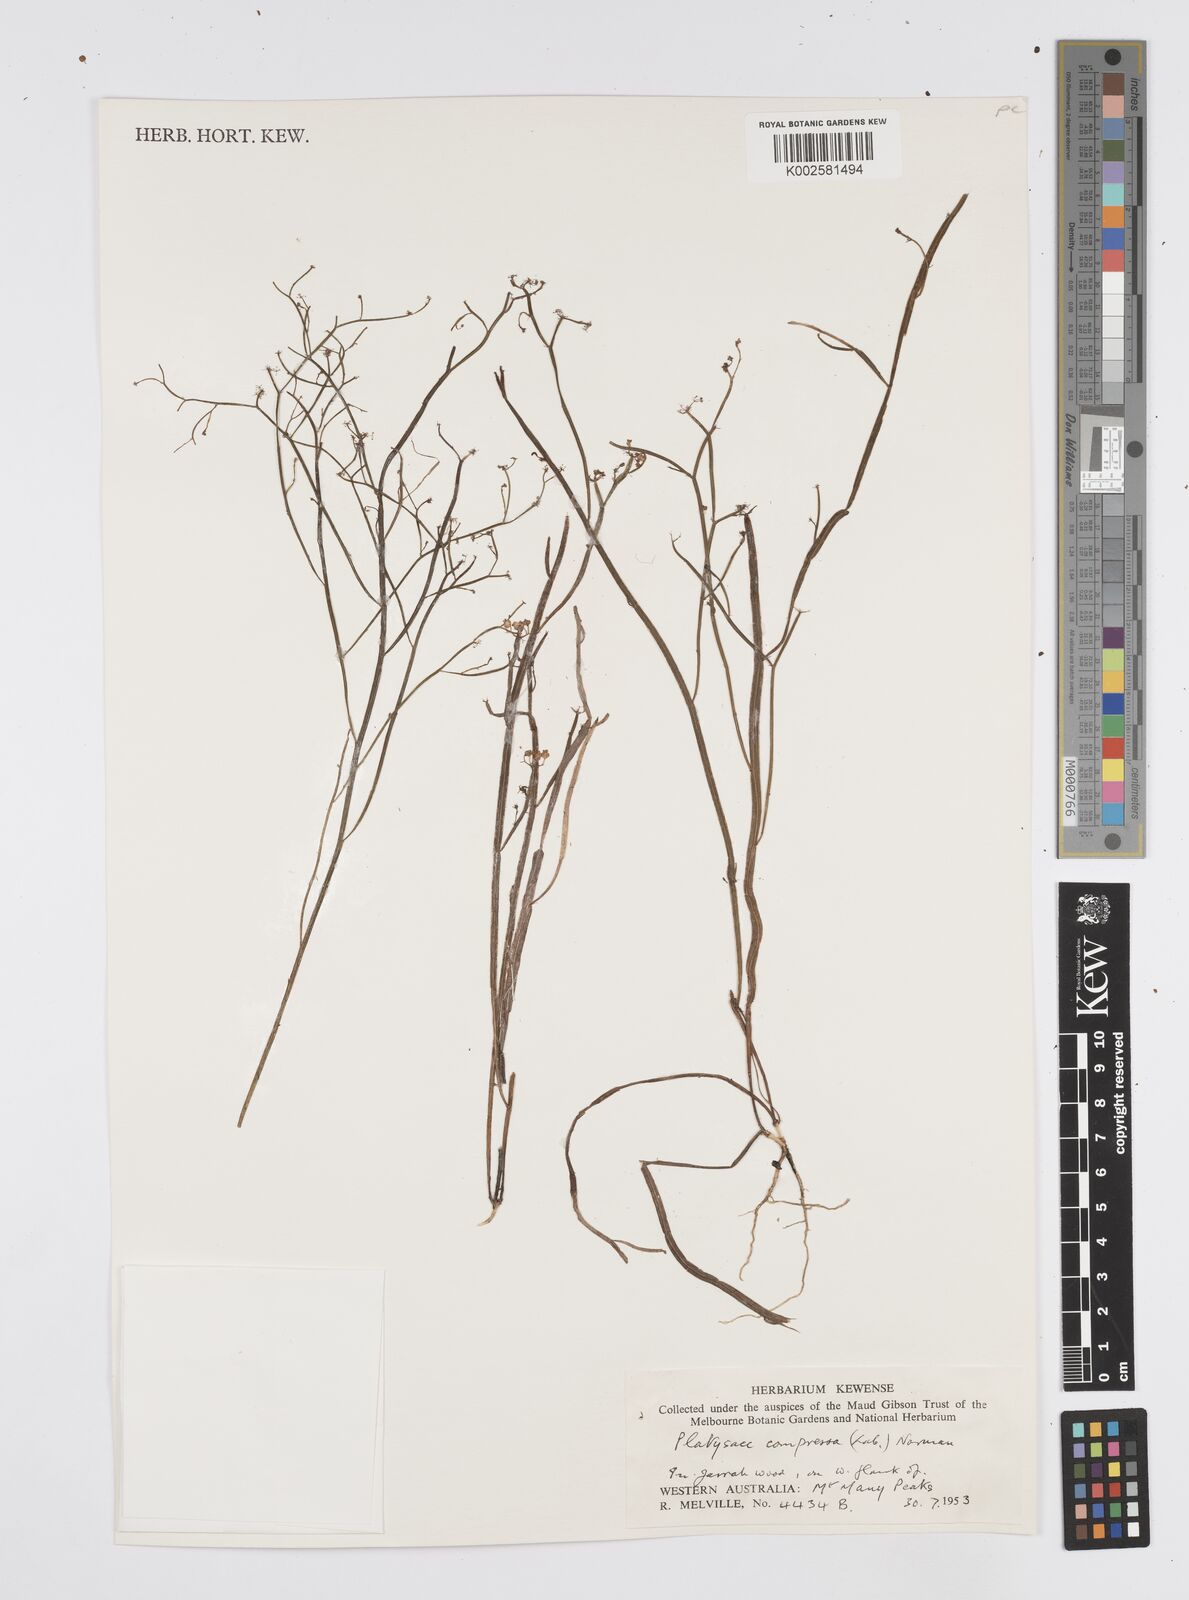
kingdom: Plantae
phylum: Tracheophyta
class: Magnoliopsida
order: Apiales
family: Apiaceae
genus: Centella
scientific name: Centella
